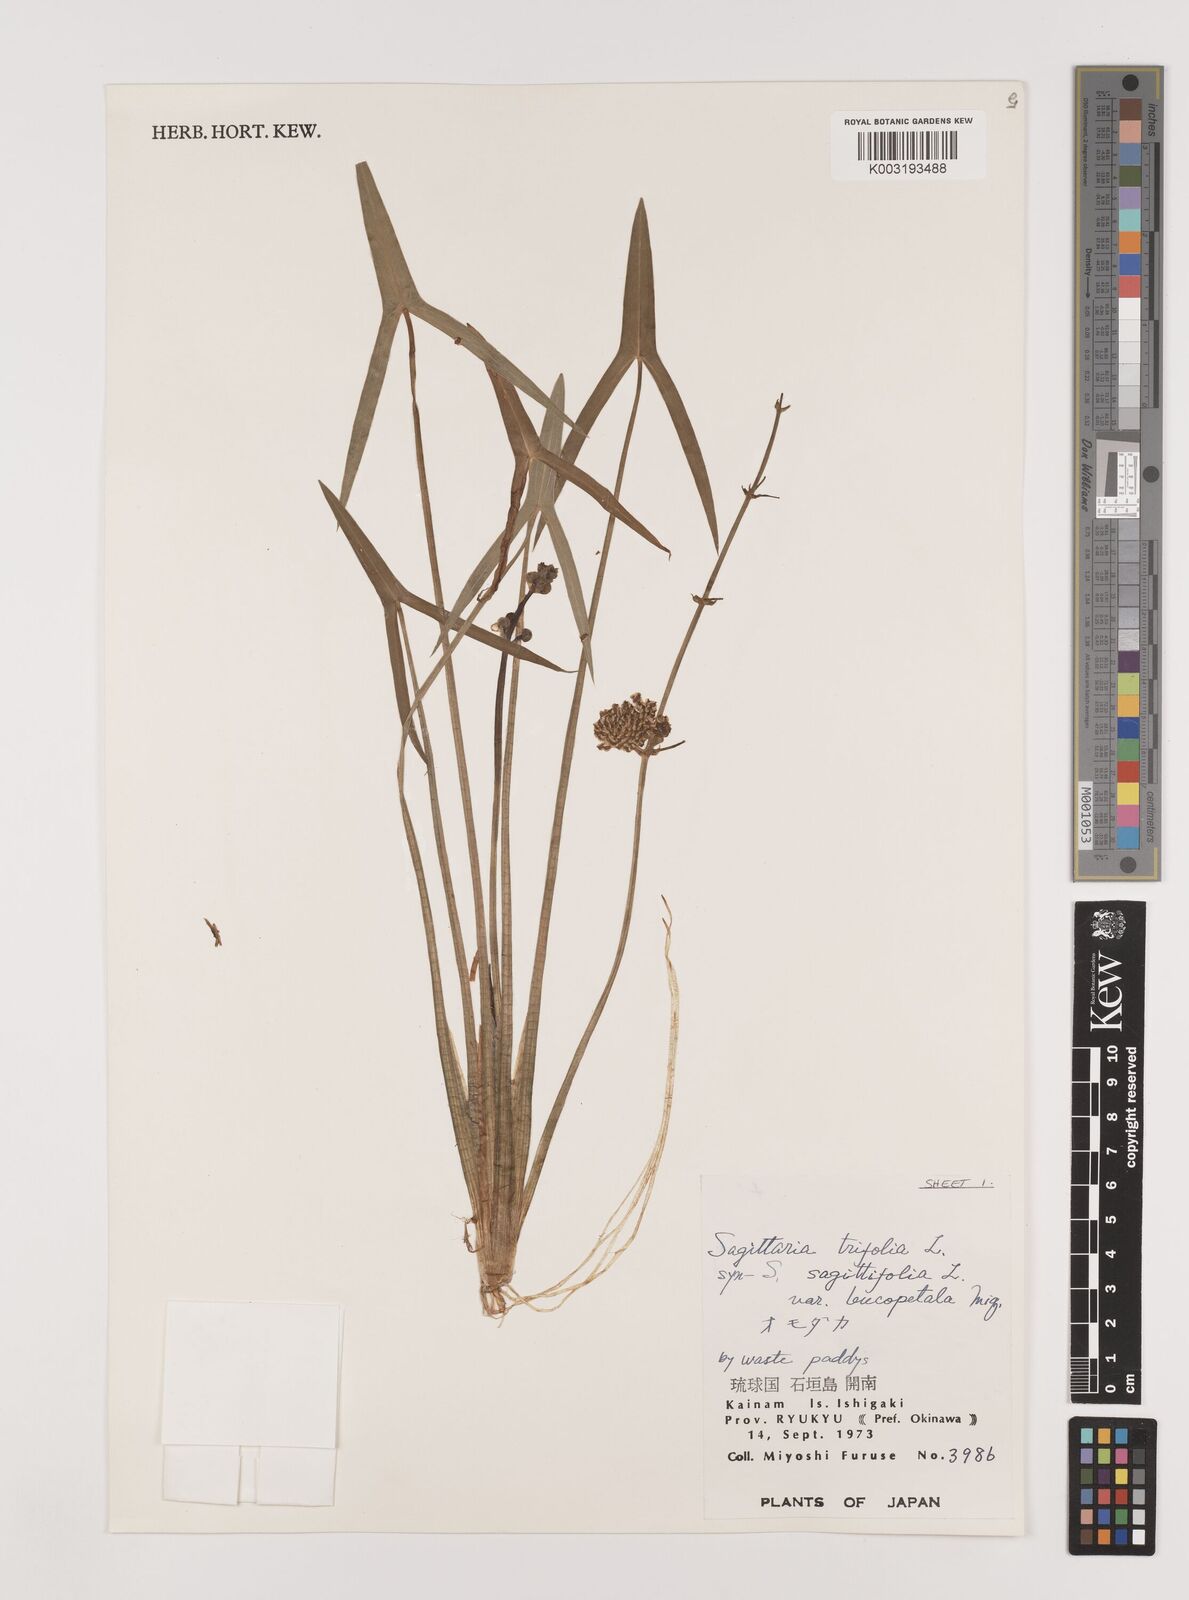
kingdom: Plantae
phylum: Tracheophyta
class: Liliopsida
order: Alismatales
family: Alismataceae
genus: Sagittaria
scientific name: Sagittaria sagittifolia
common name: Arrowhead
